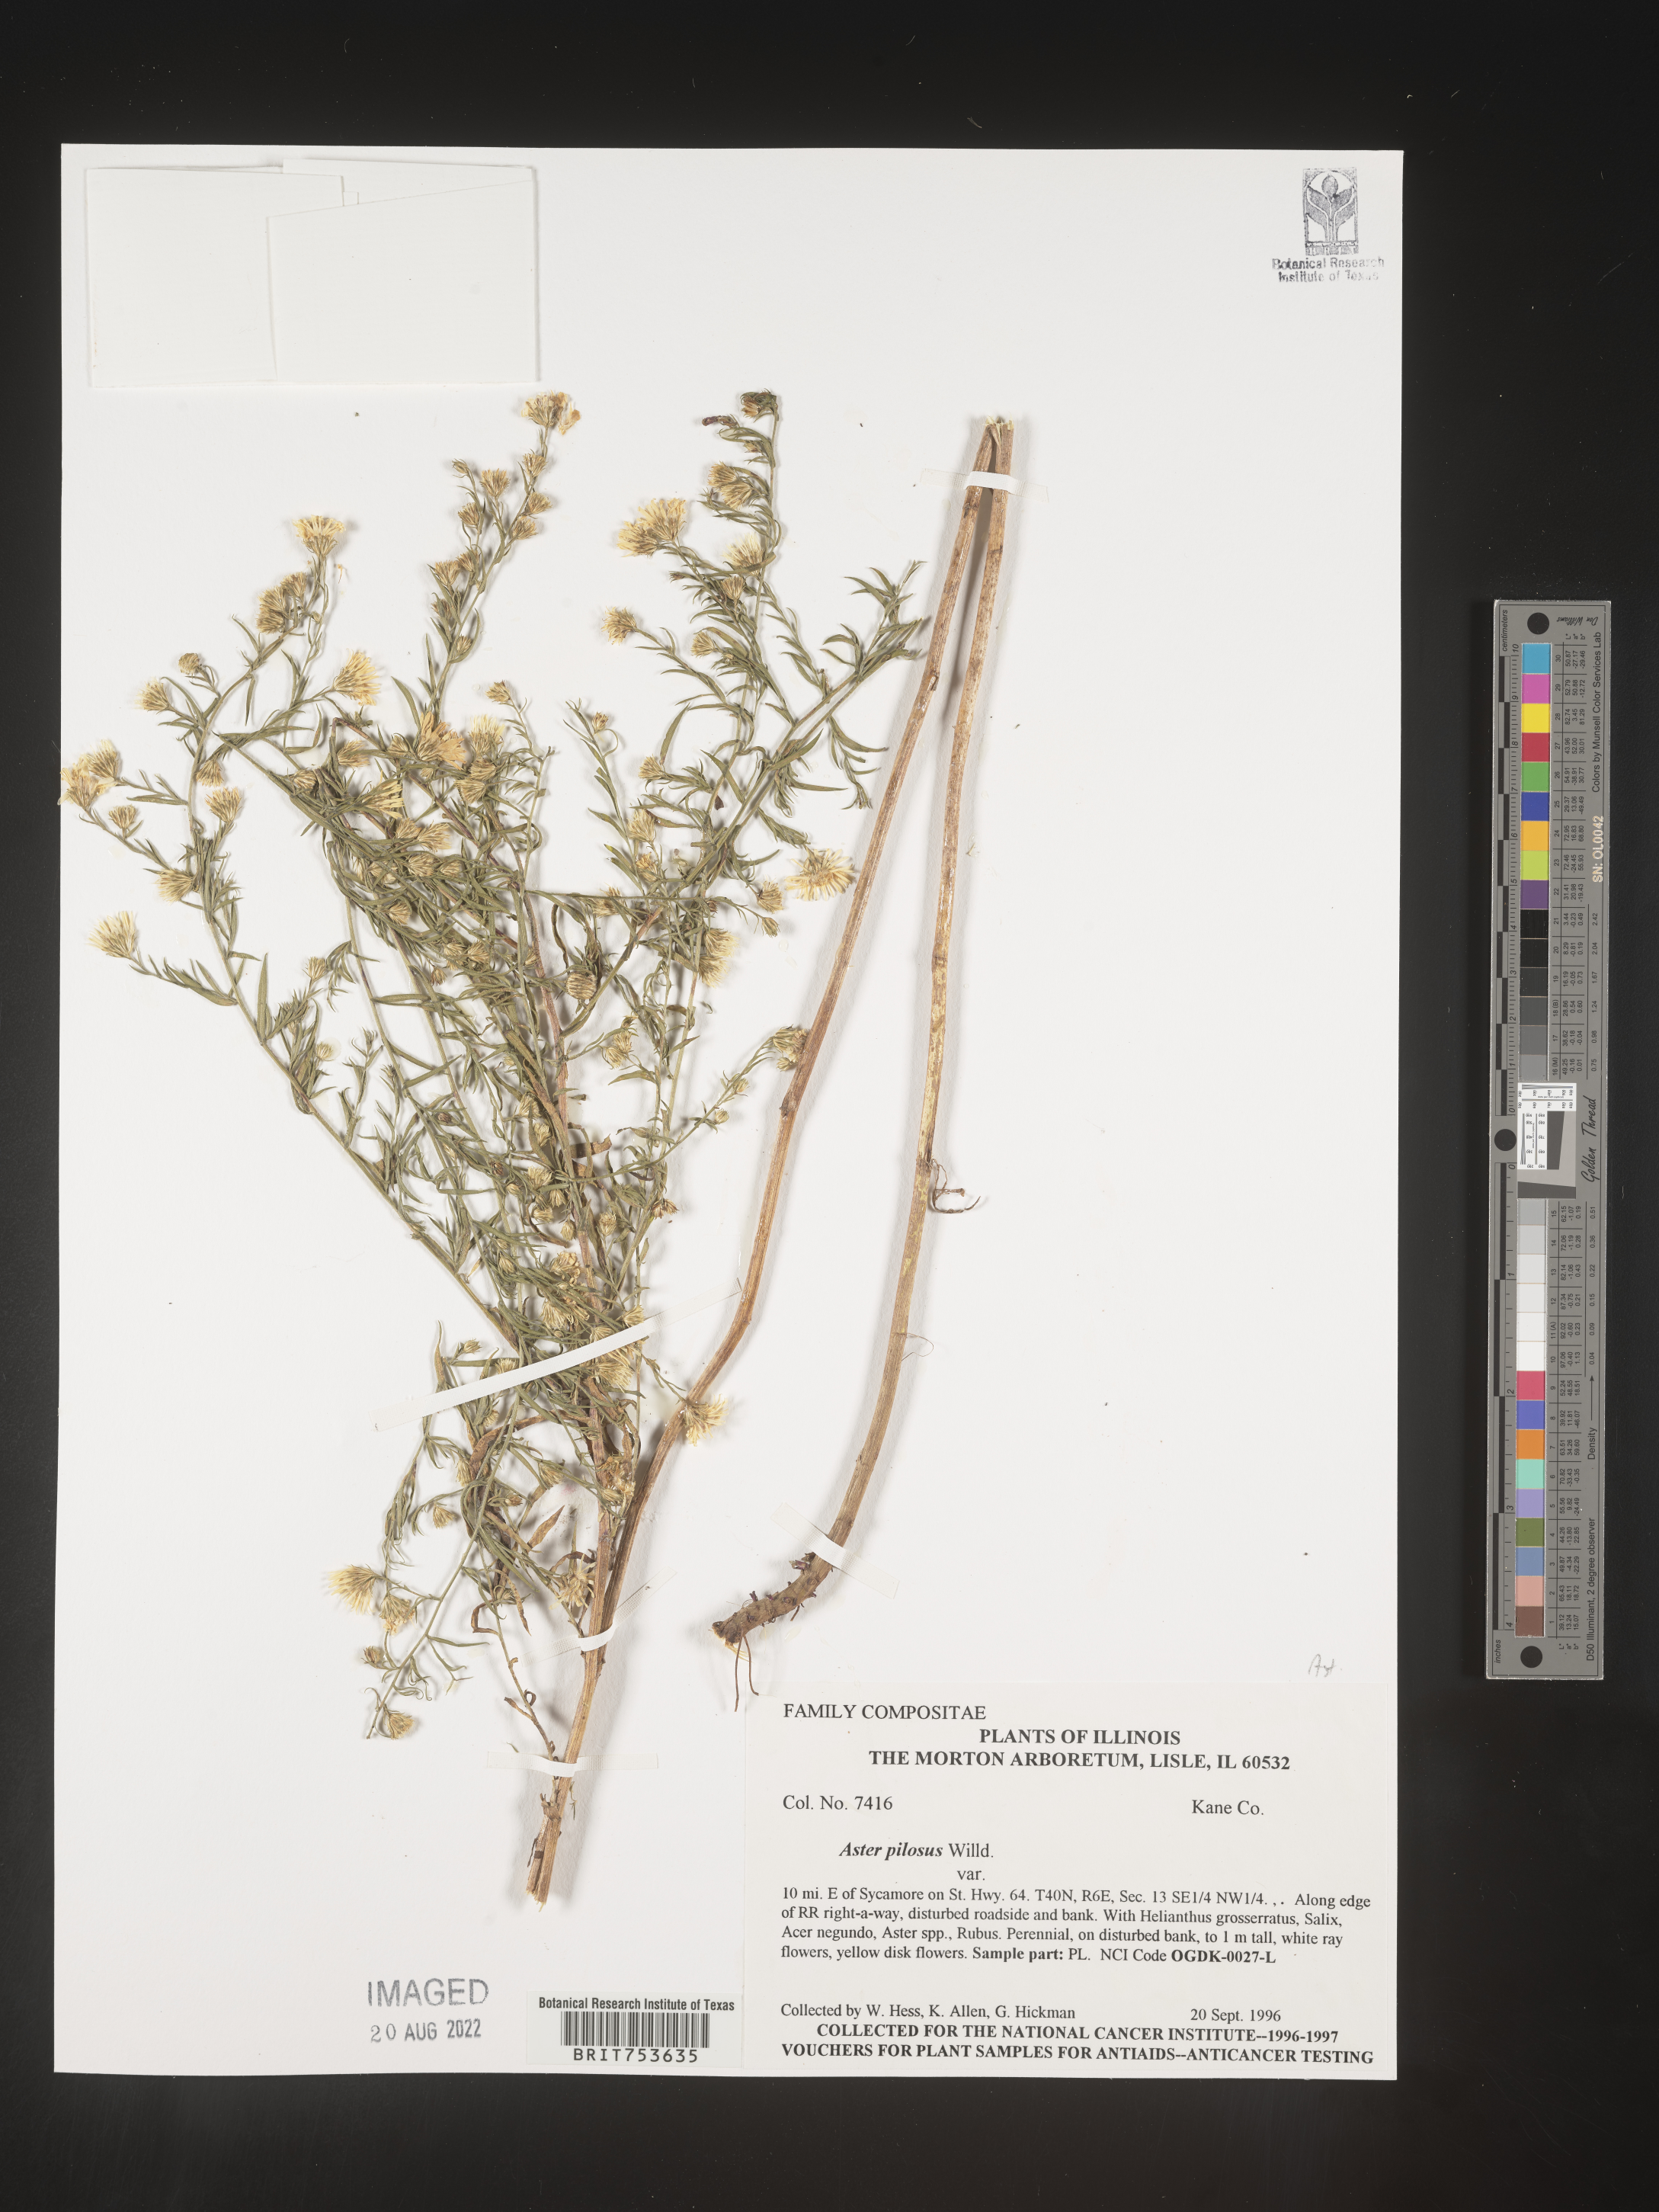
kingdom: Plantae
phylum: Tracheophyta
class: Magnoliopsida
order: Asterales
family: Asteraceae
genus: Symphyotrichum
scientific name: Symphyotrichum pilosum
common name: Awl aster
